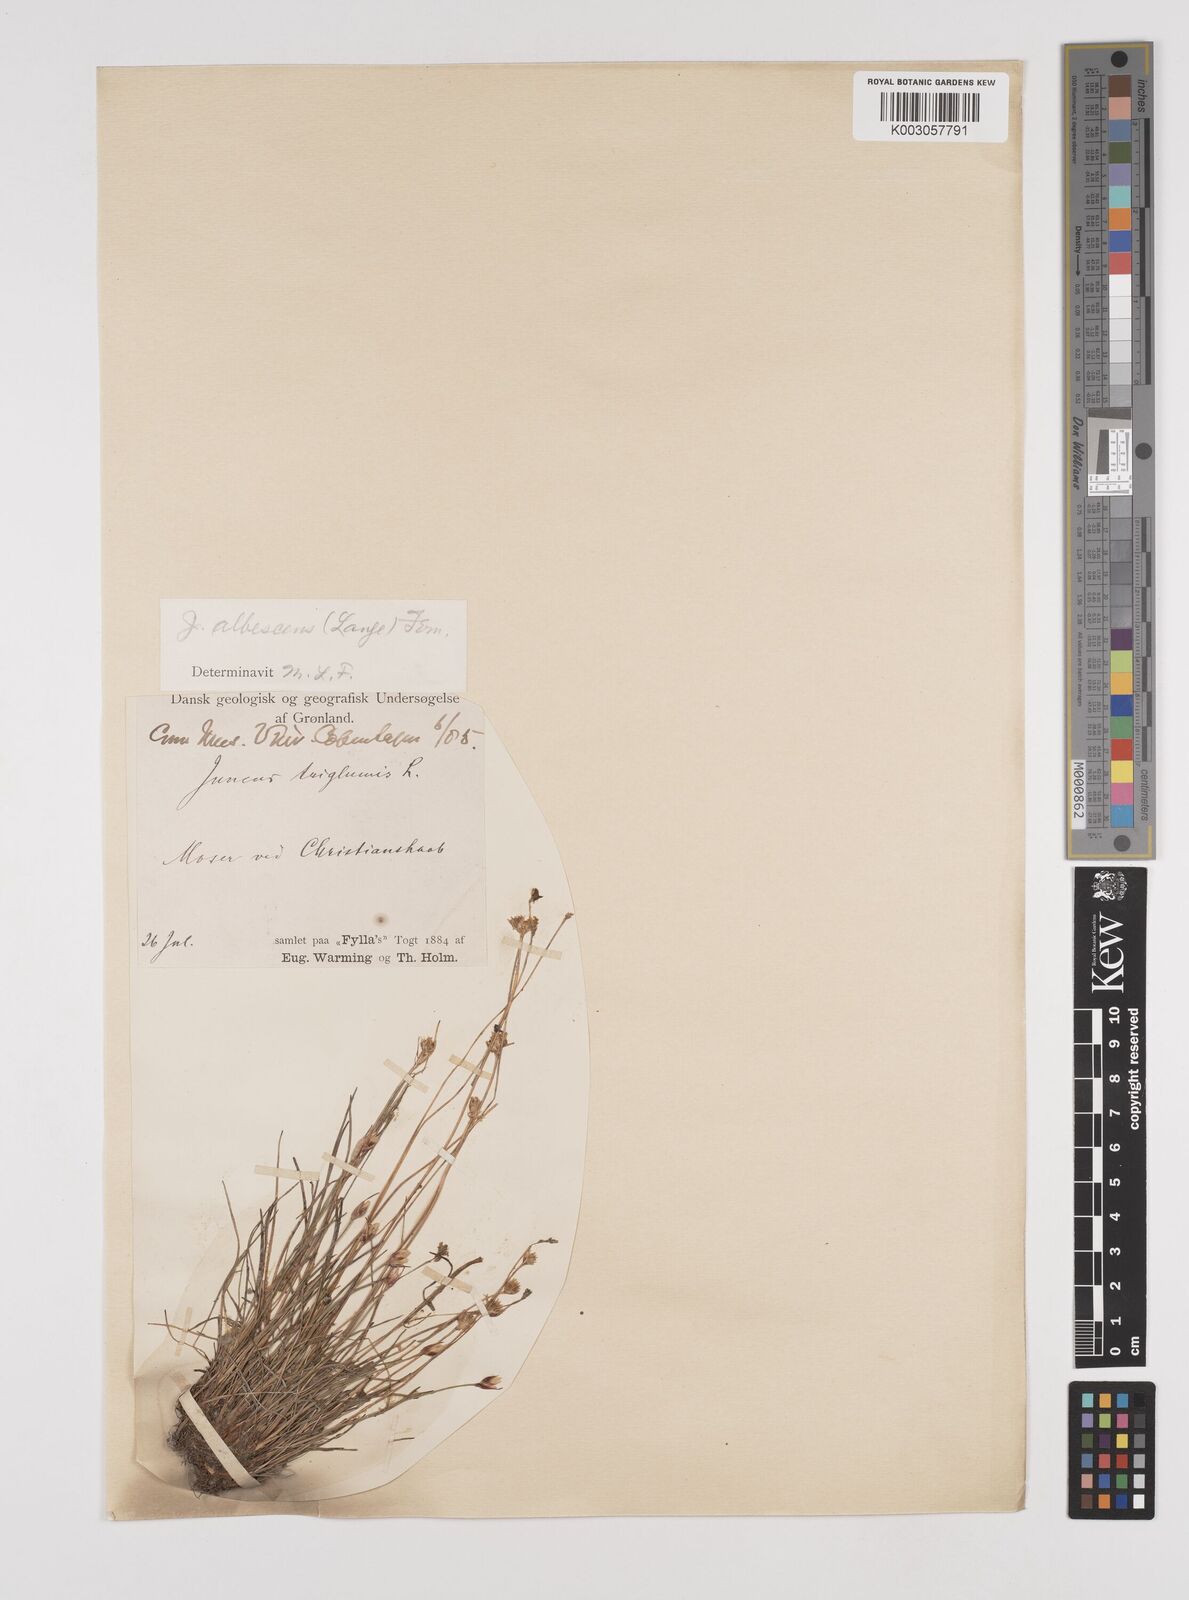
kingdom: Plantae
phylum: Tracheophyta
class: Liliopsida
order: Poales
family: Juncaceae
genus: Juncus
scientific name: Juncus triglumis
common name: Three-flowered rush
